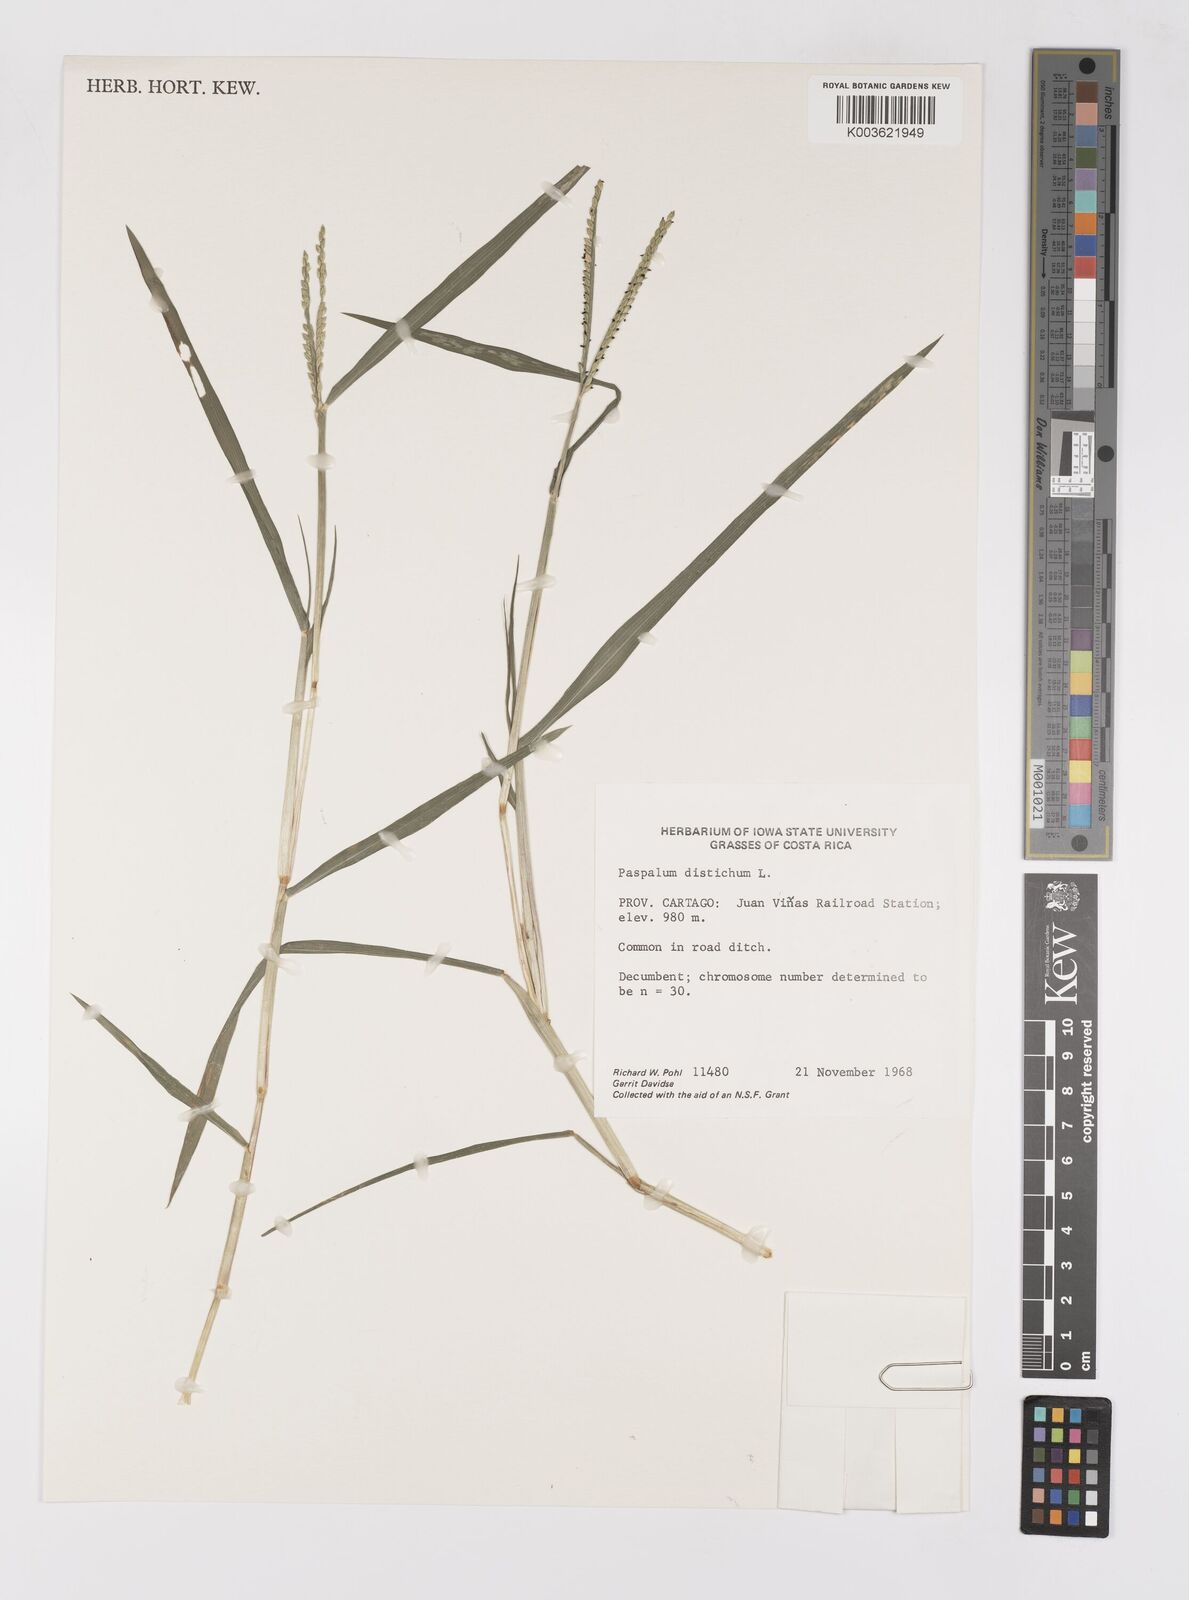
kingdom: Plantae
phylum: Tracheophyta
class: Liliopsida
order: Poales
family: Poaceae
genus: Paspalum
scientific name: Paspalum distichum
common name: Knotgrass
